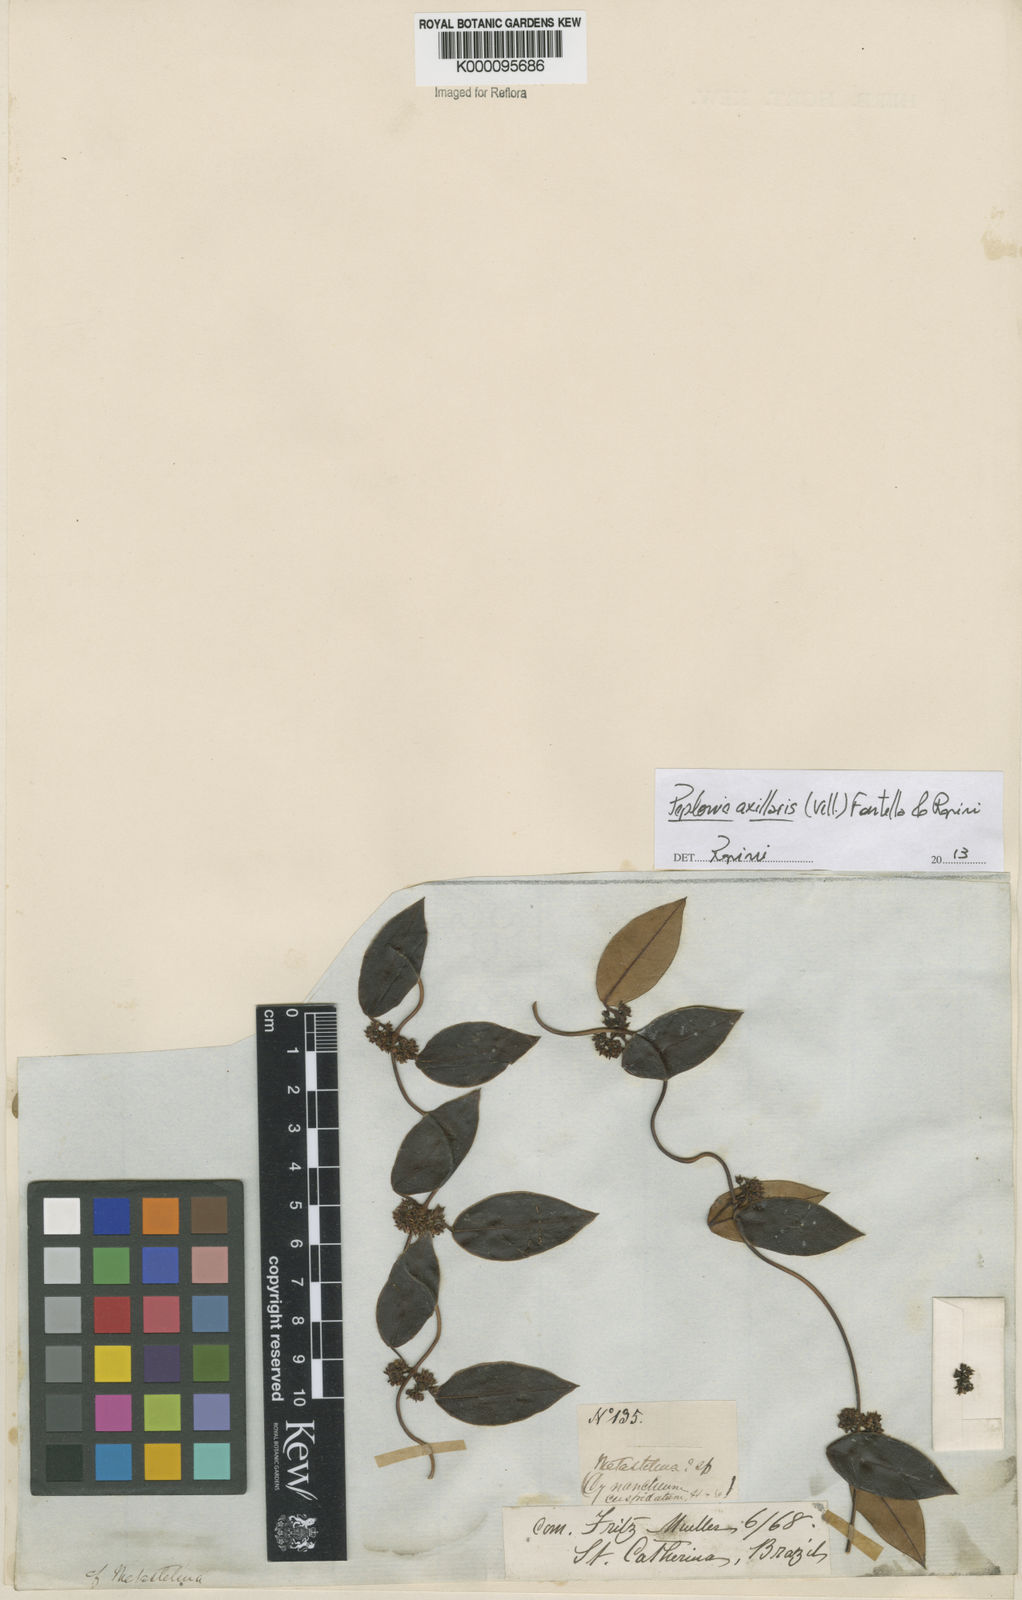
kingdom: Plantae
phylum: Tracheophyta
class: Magnoliopsida
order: Gentianales
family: Apocynaceae
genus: Peplonia
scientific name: Peplonia axillaris
